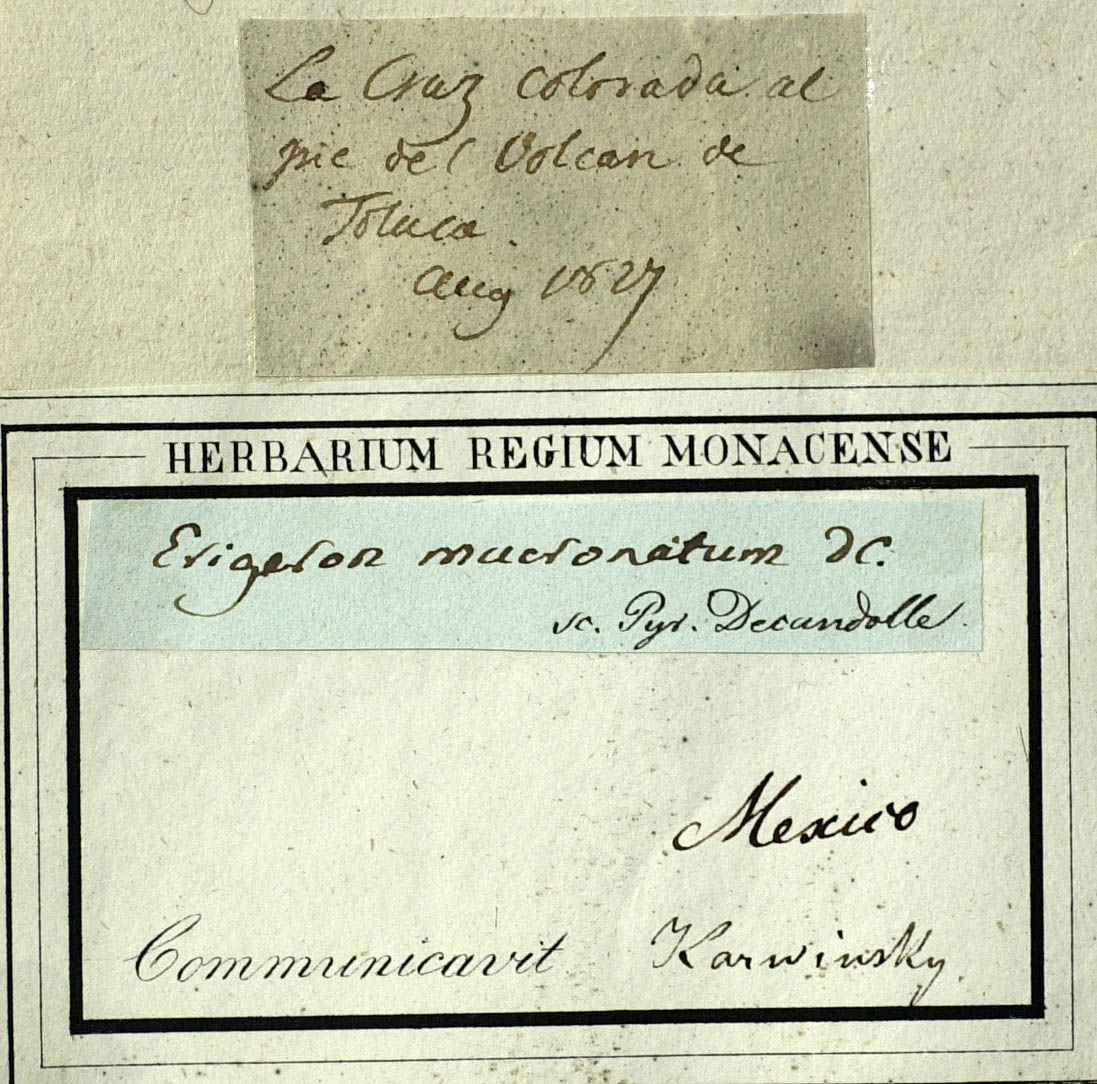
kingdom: Plantae
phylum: Tracheophyta
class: Magnoliopsida
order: Asterales
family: Asteraceae
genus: Erigeron
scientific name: Erigeron karvinskianus
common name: Mexican fleabane
